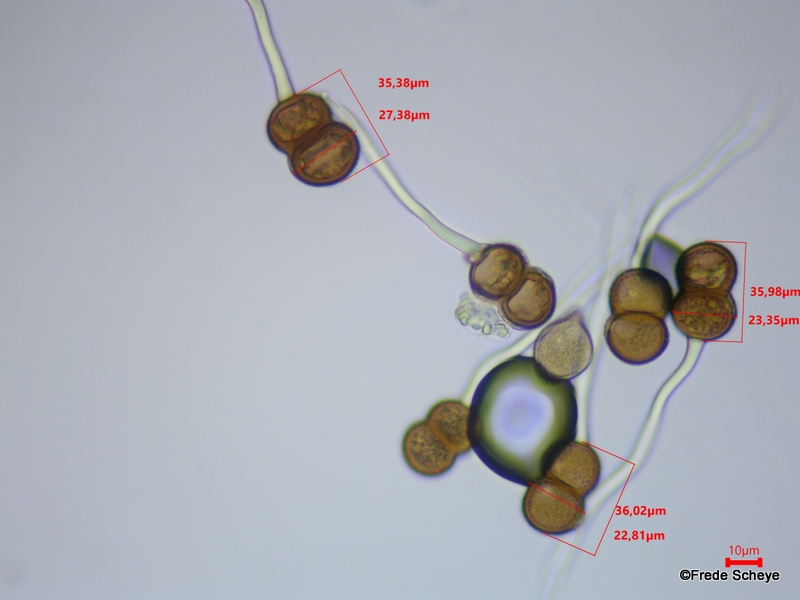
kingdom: Fungi
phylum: Basidiomycota
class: Pucciniomycetes
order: Pucciniales
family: Pucciniaceae
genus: Cumminsiella
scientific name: Cumminsiella mirabilissima
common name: mahonierust
